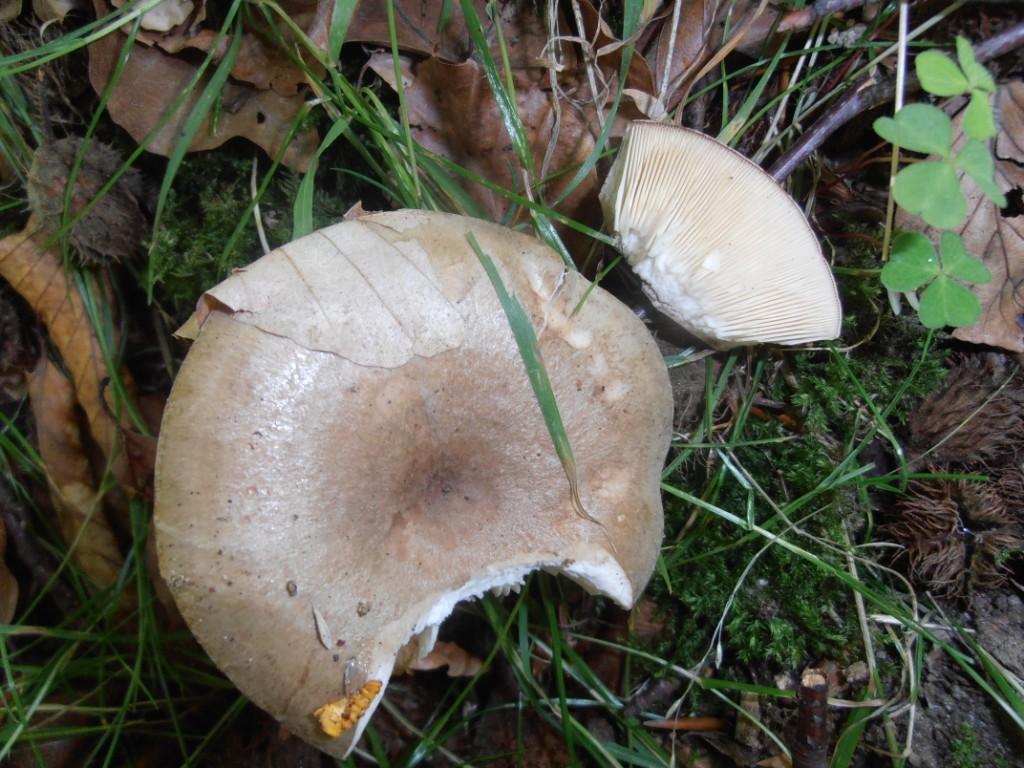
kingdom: Fungi
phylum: Basidiomycota
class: Agaricomycetes
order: Russulales
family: Russulaceae
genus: Lactarius
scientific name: Lactarius blennius
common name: dråbeplettet mælkehat
